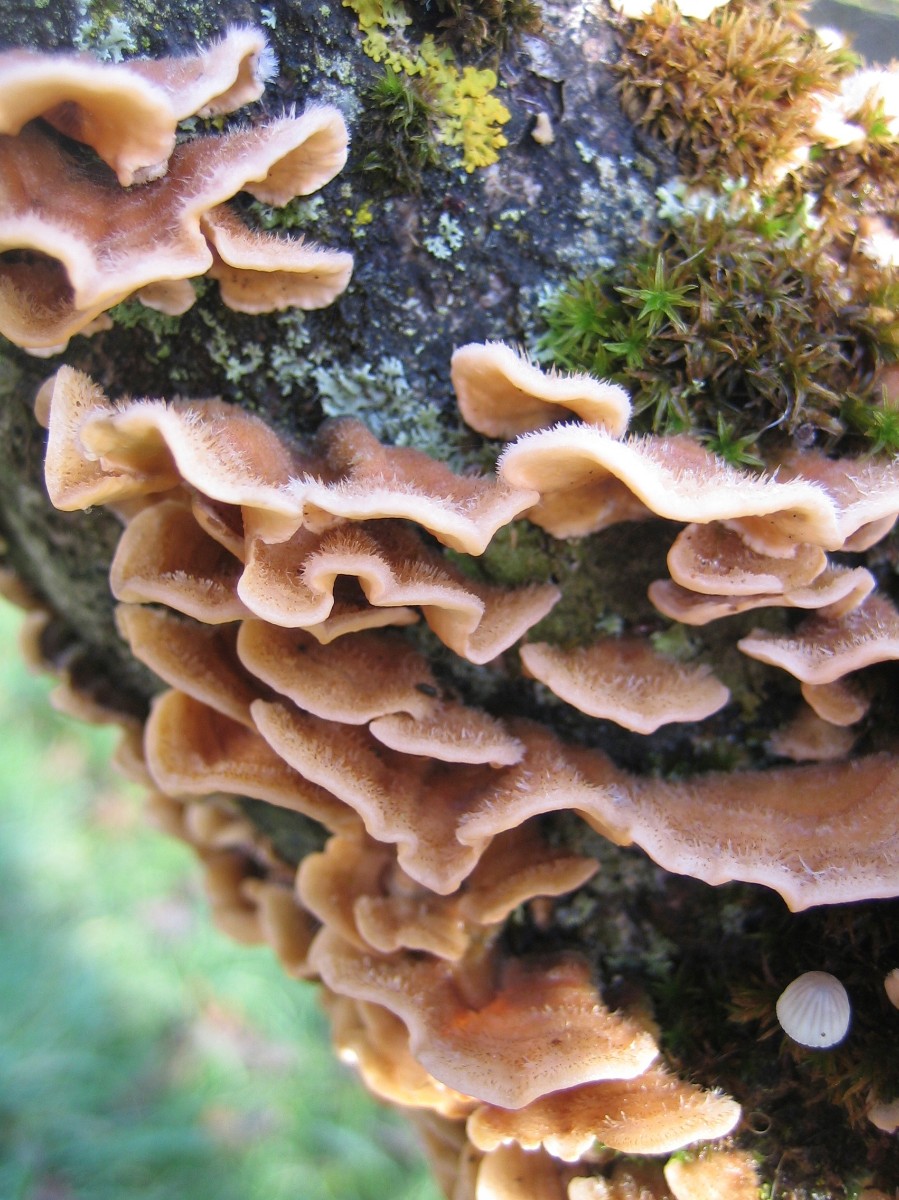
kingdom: Fungi
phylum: Basidiomycota
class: Agaricomycetes
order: Russulales
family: Stereaceae
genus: Stereum
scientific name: Stereum hirsutum
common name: håret lædersvamp
